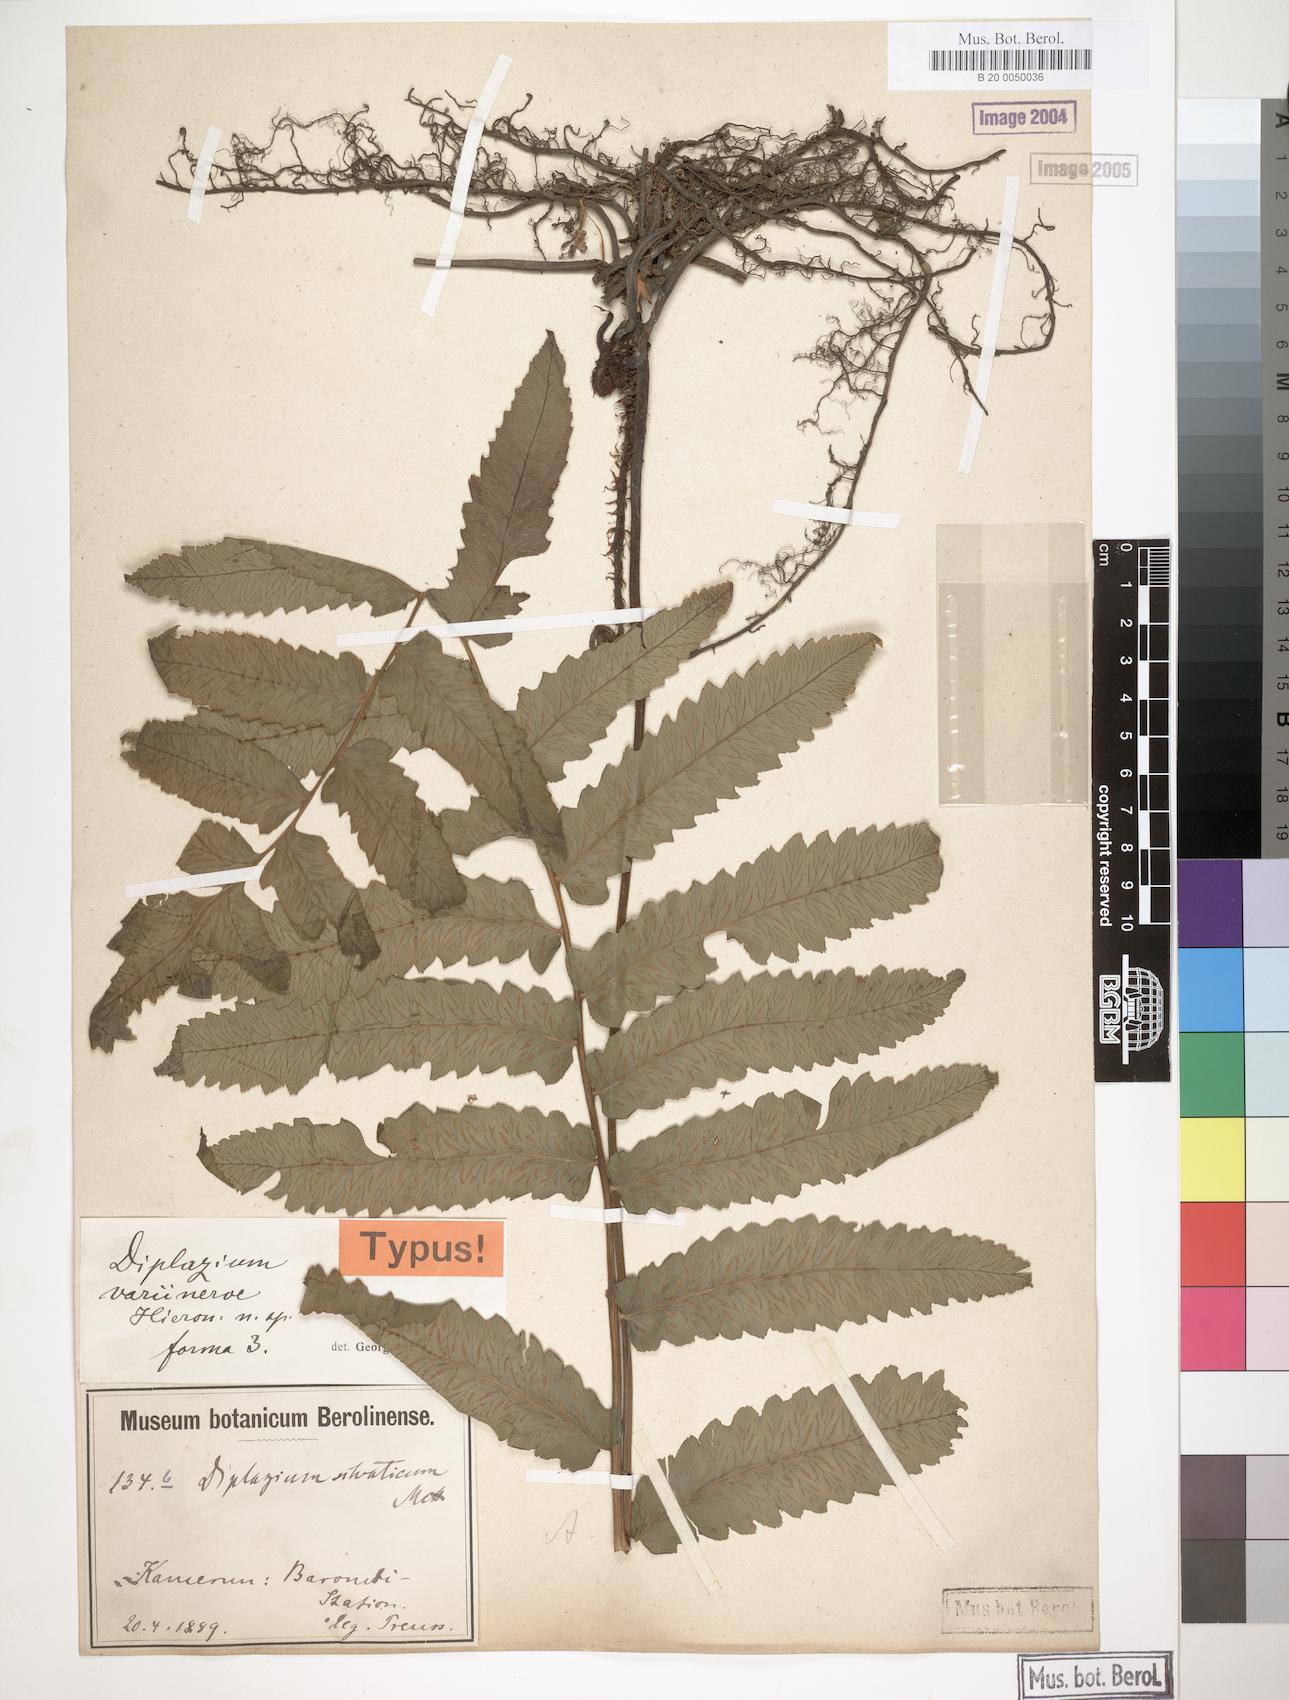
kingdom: Plantae
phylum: Tracheophyta
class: Polypodiopsida
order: Polypodiales
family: Athyriaceae
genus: Diplazium
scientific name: Diplazium welwitschii
